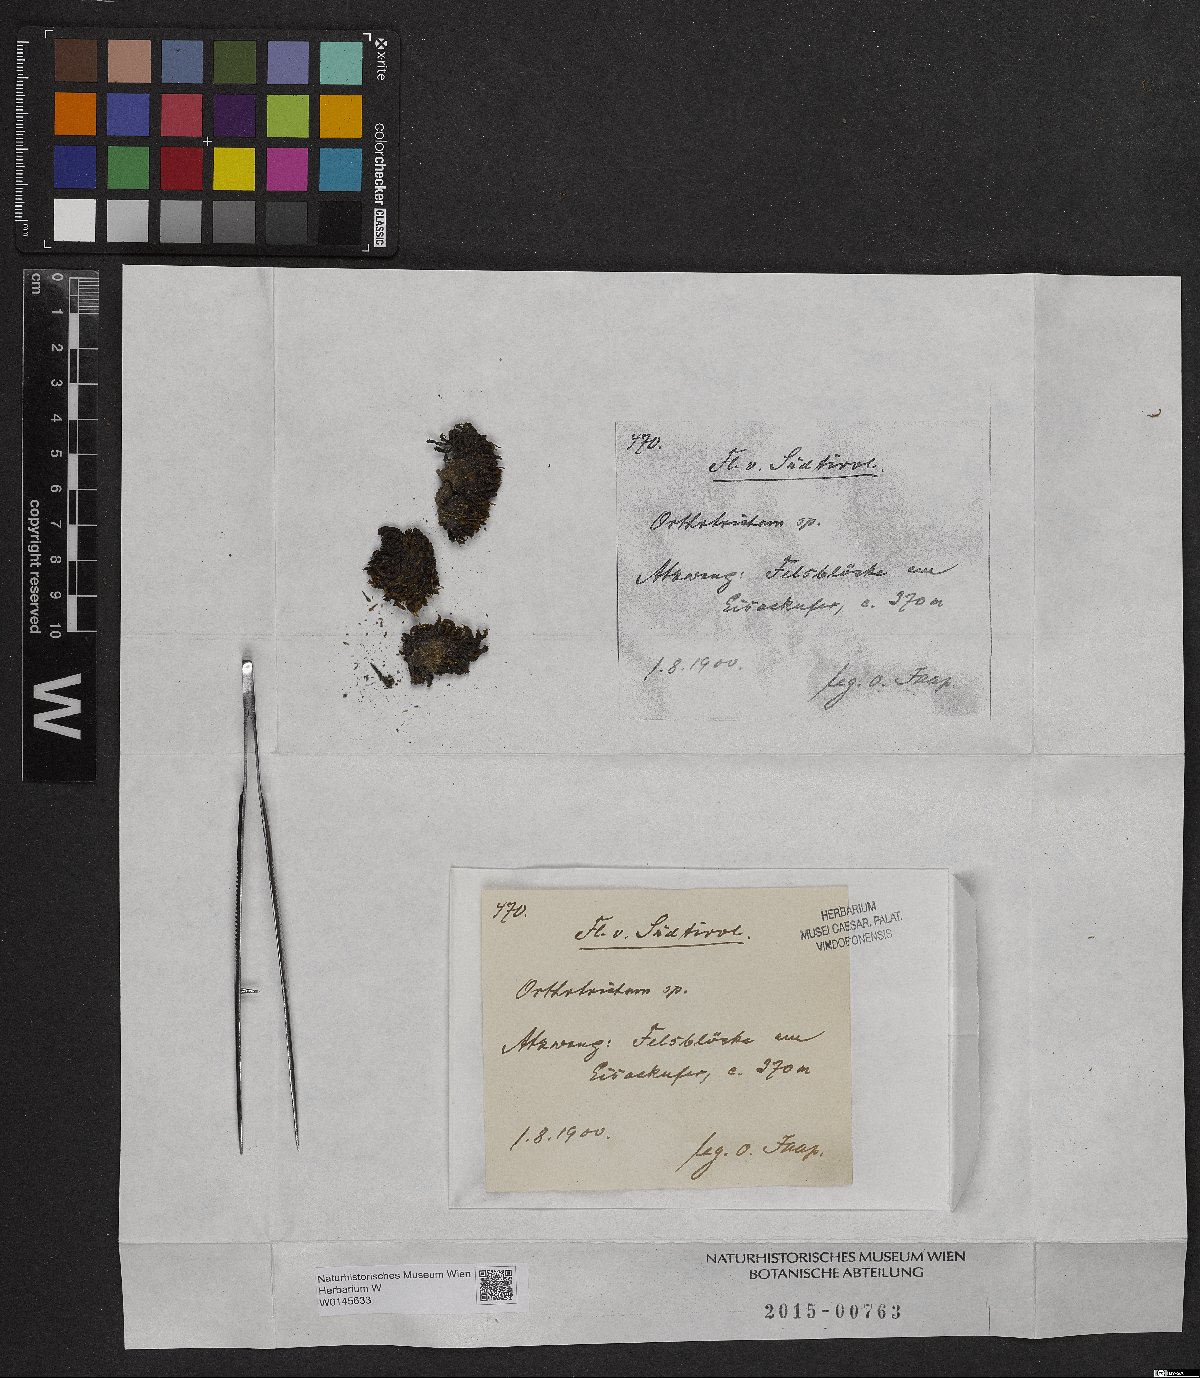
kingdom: Plantae
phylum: Bryophyta
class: Bryopsida
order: Orthotrichales
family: Orthotrichaceae
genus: Orthotrichum
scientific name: Orthotrichum
